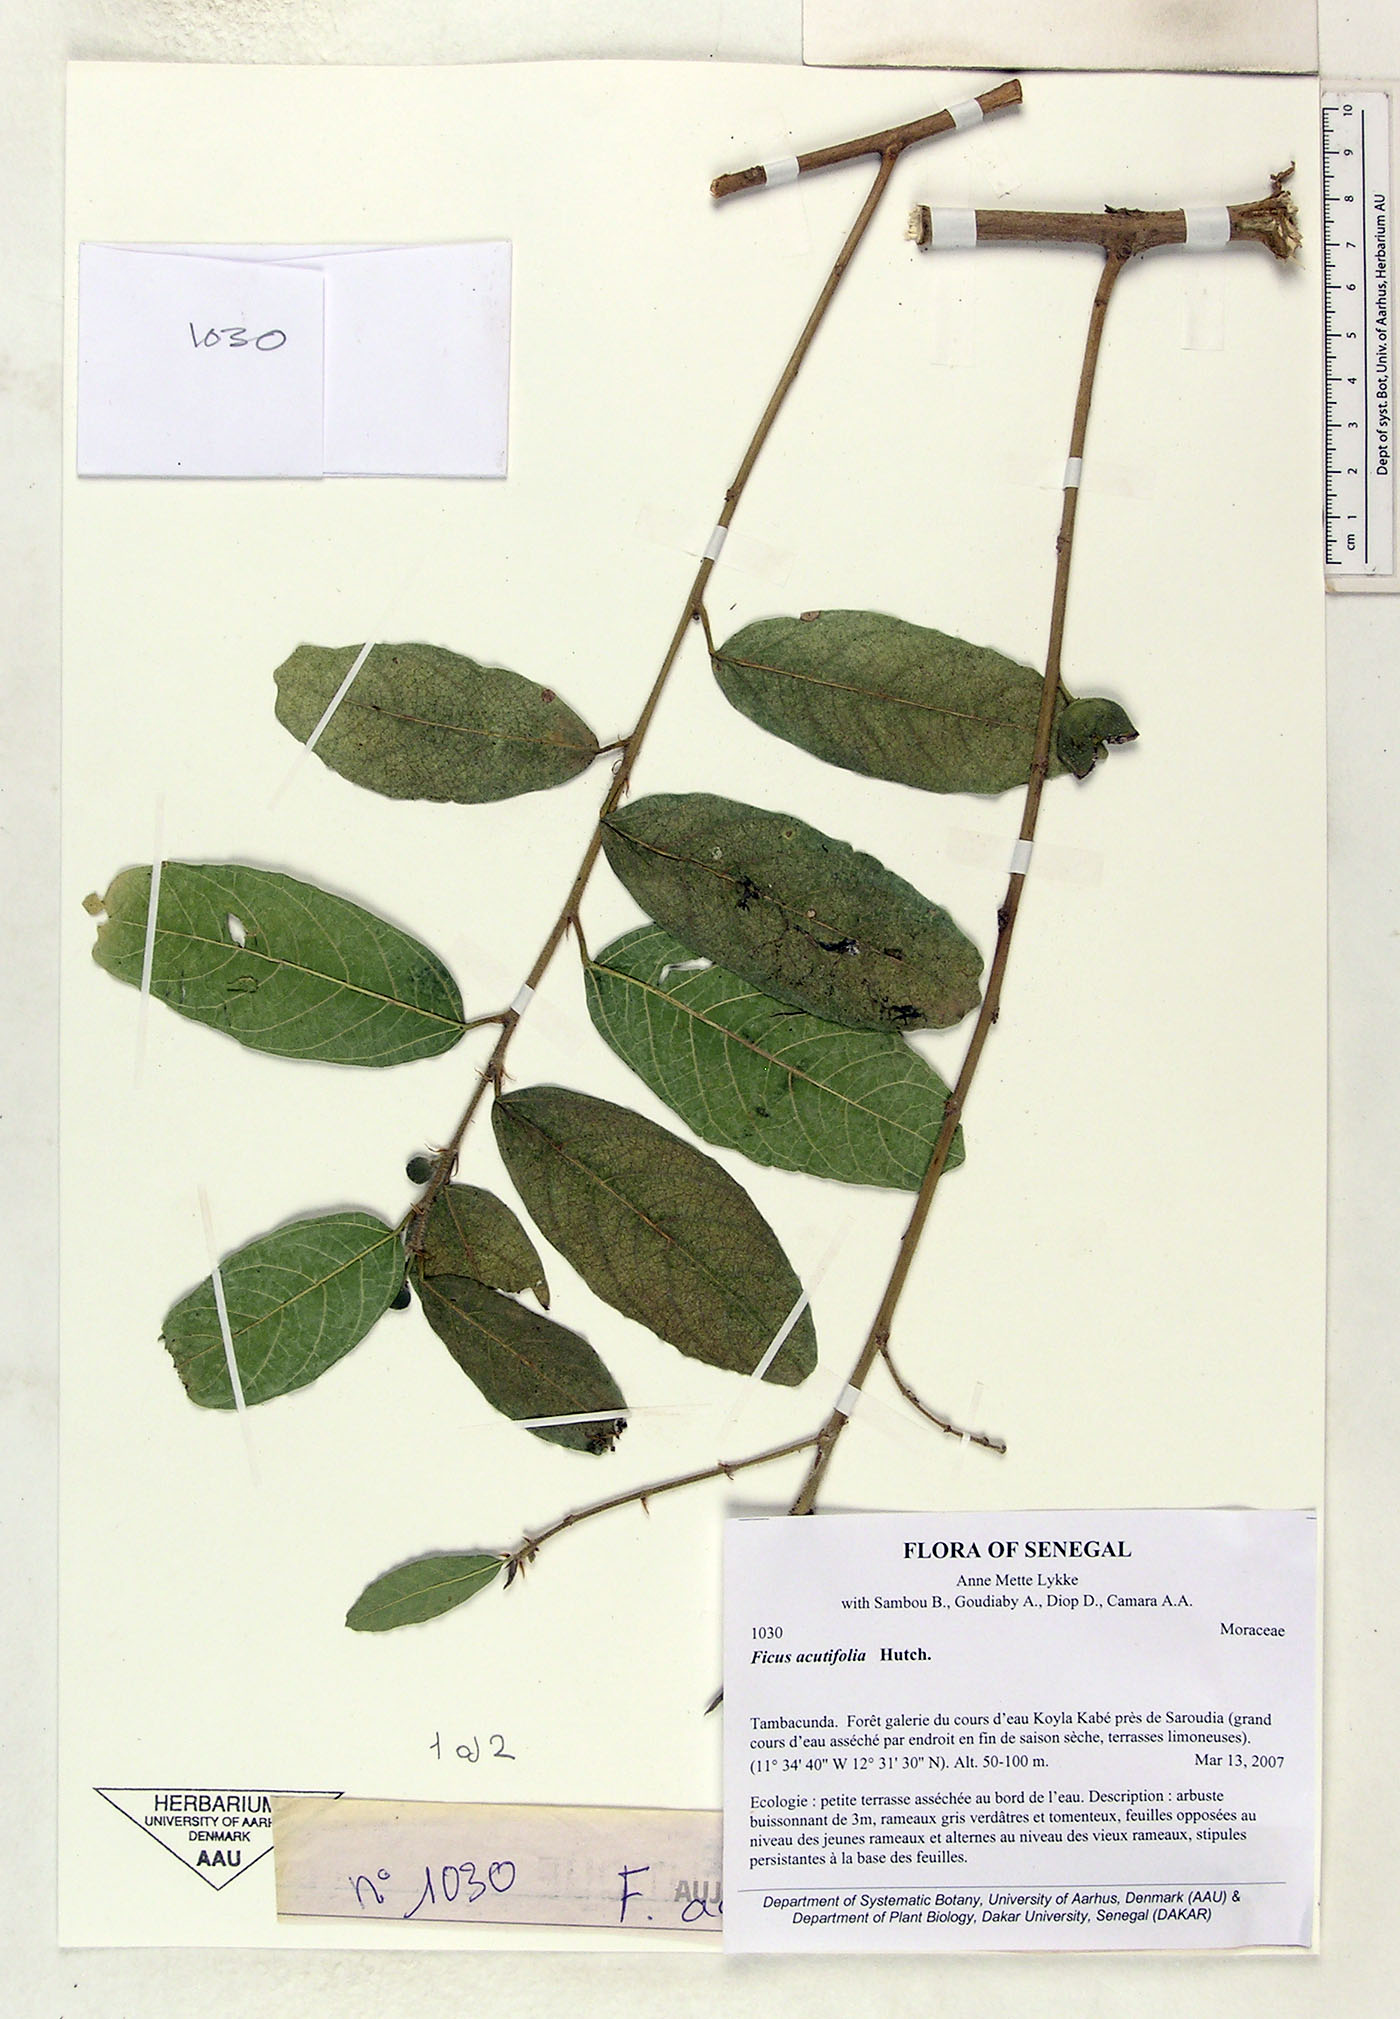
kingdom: Plantae
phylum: Tracheophyta
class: Magnoliopsida
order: Rosales
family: Moraceae
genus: Ficus
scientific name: Ficus asperifolia
